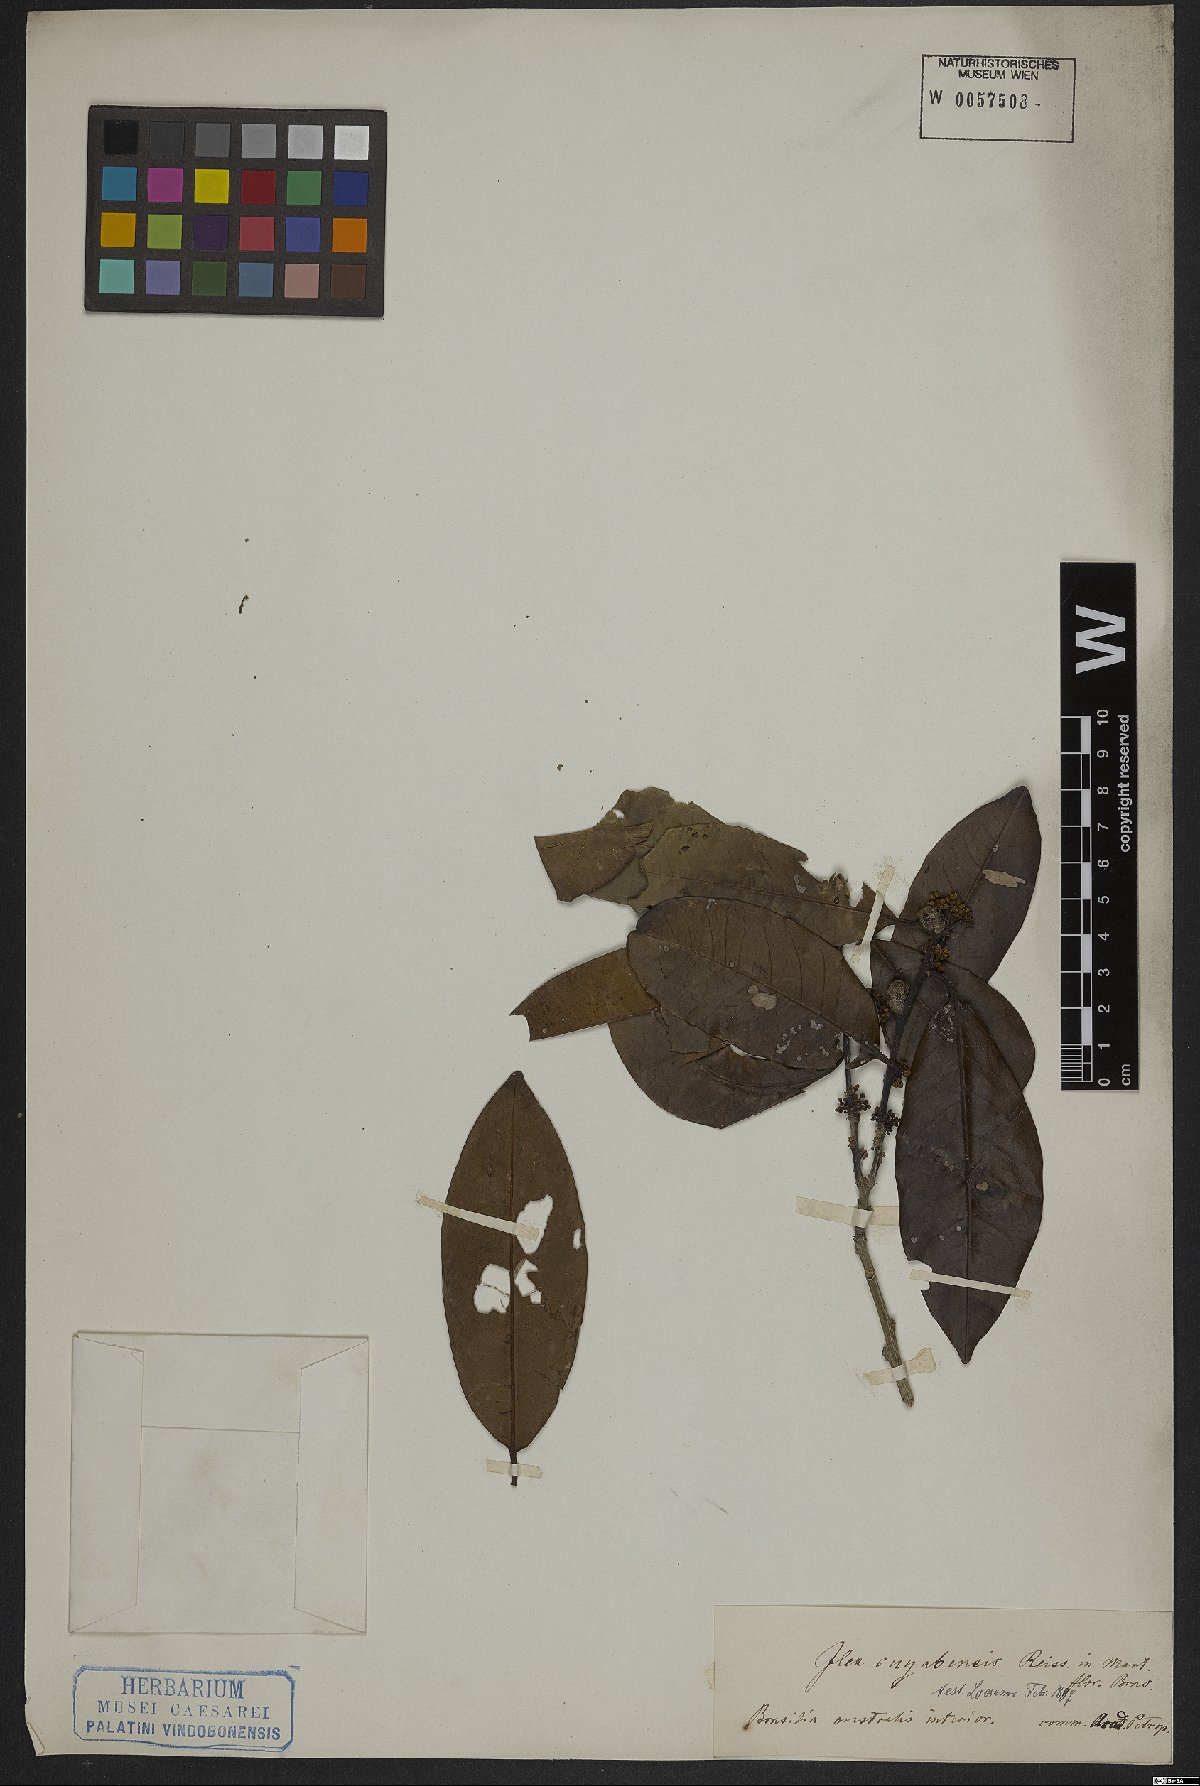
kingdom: Plantae
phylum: Tracheophyta
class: Magnoliopsida
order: Aquifoliales
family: Aquifoliaceae
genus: Ilex
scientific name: Ilex cuiabensis
